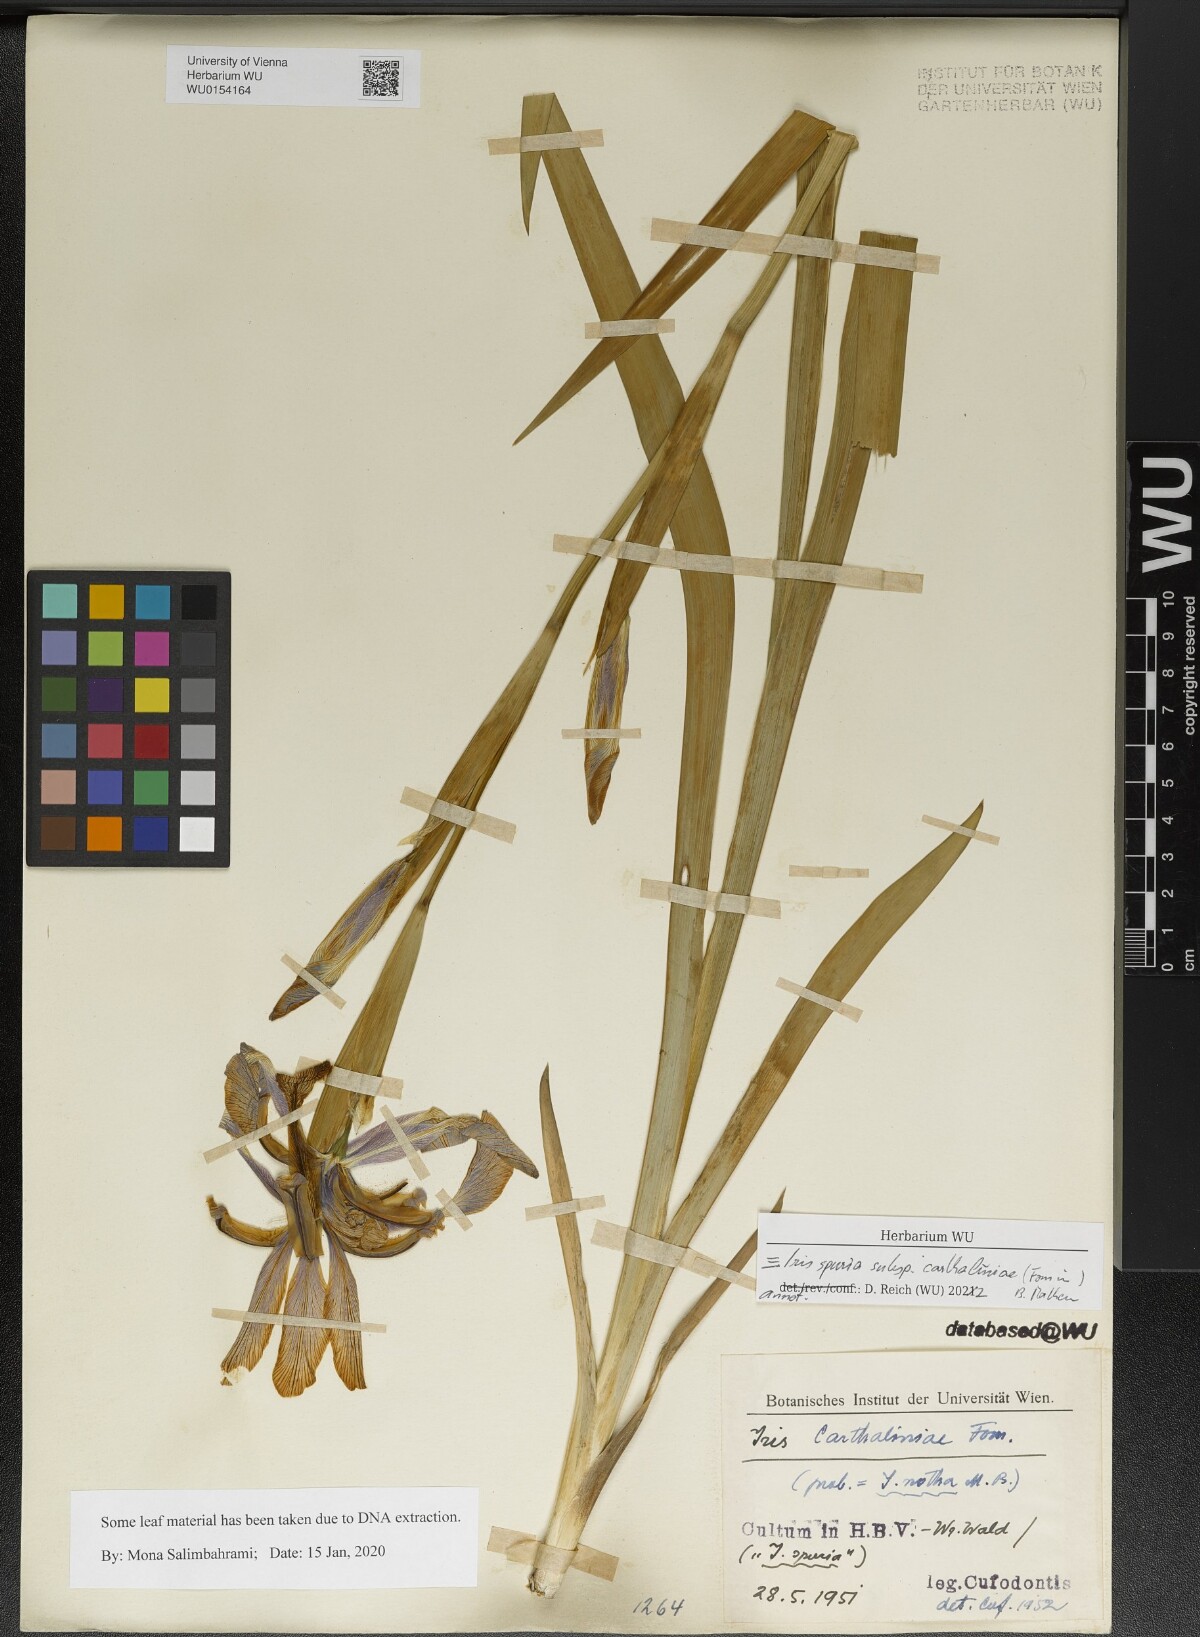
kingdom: Plantae
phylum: Tracheophyta
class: Liliopsida
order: Asparagales
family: Iridaceae
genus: Iris
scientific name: Iris spuria
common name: Blue iris
